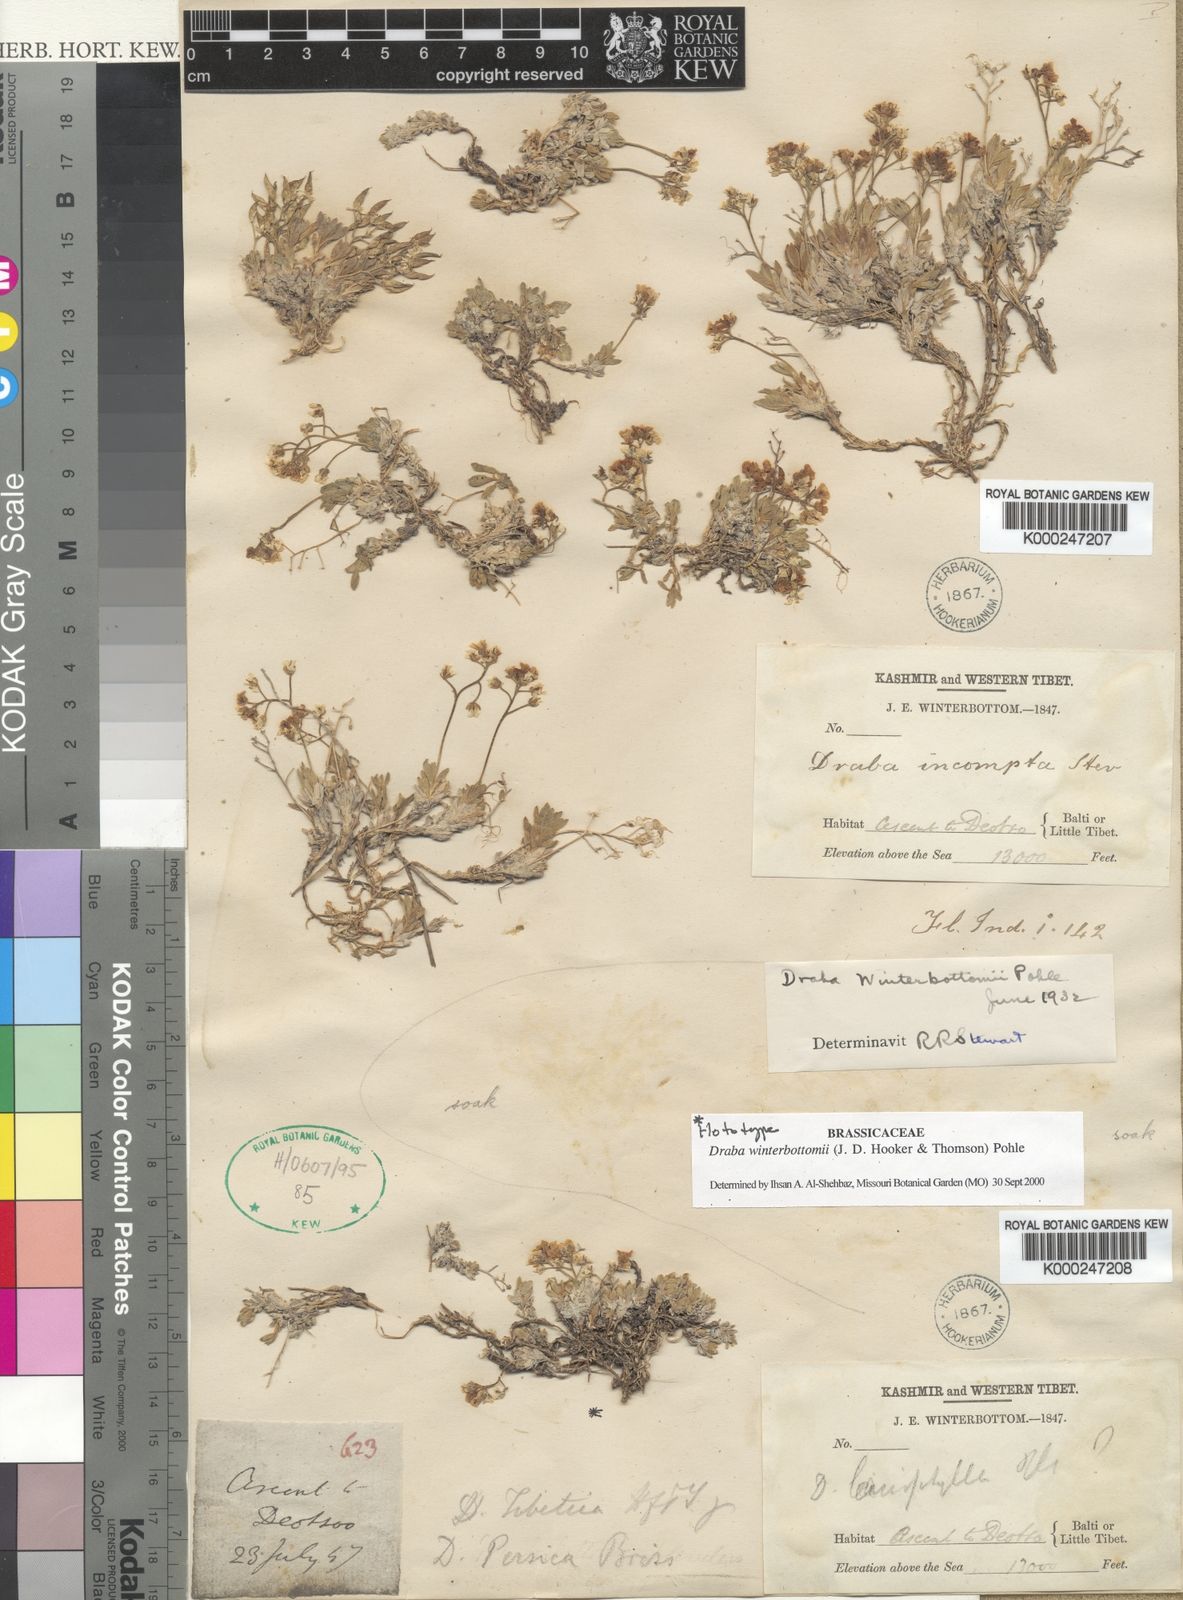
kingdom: Plantae
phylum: Tracheophyta
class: Magnoliopsida
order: Brassicales
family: Brassicaceae
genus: Draba
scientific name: Draba winterbottomii
